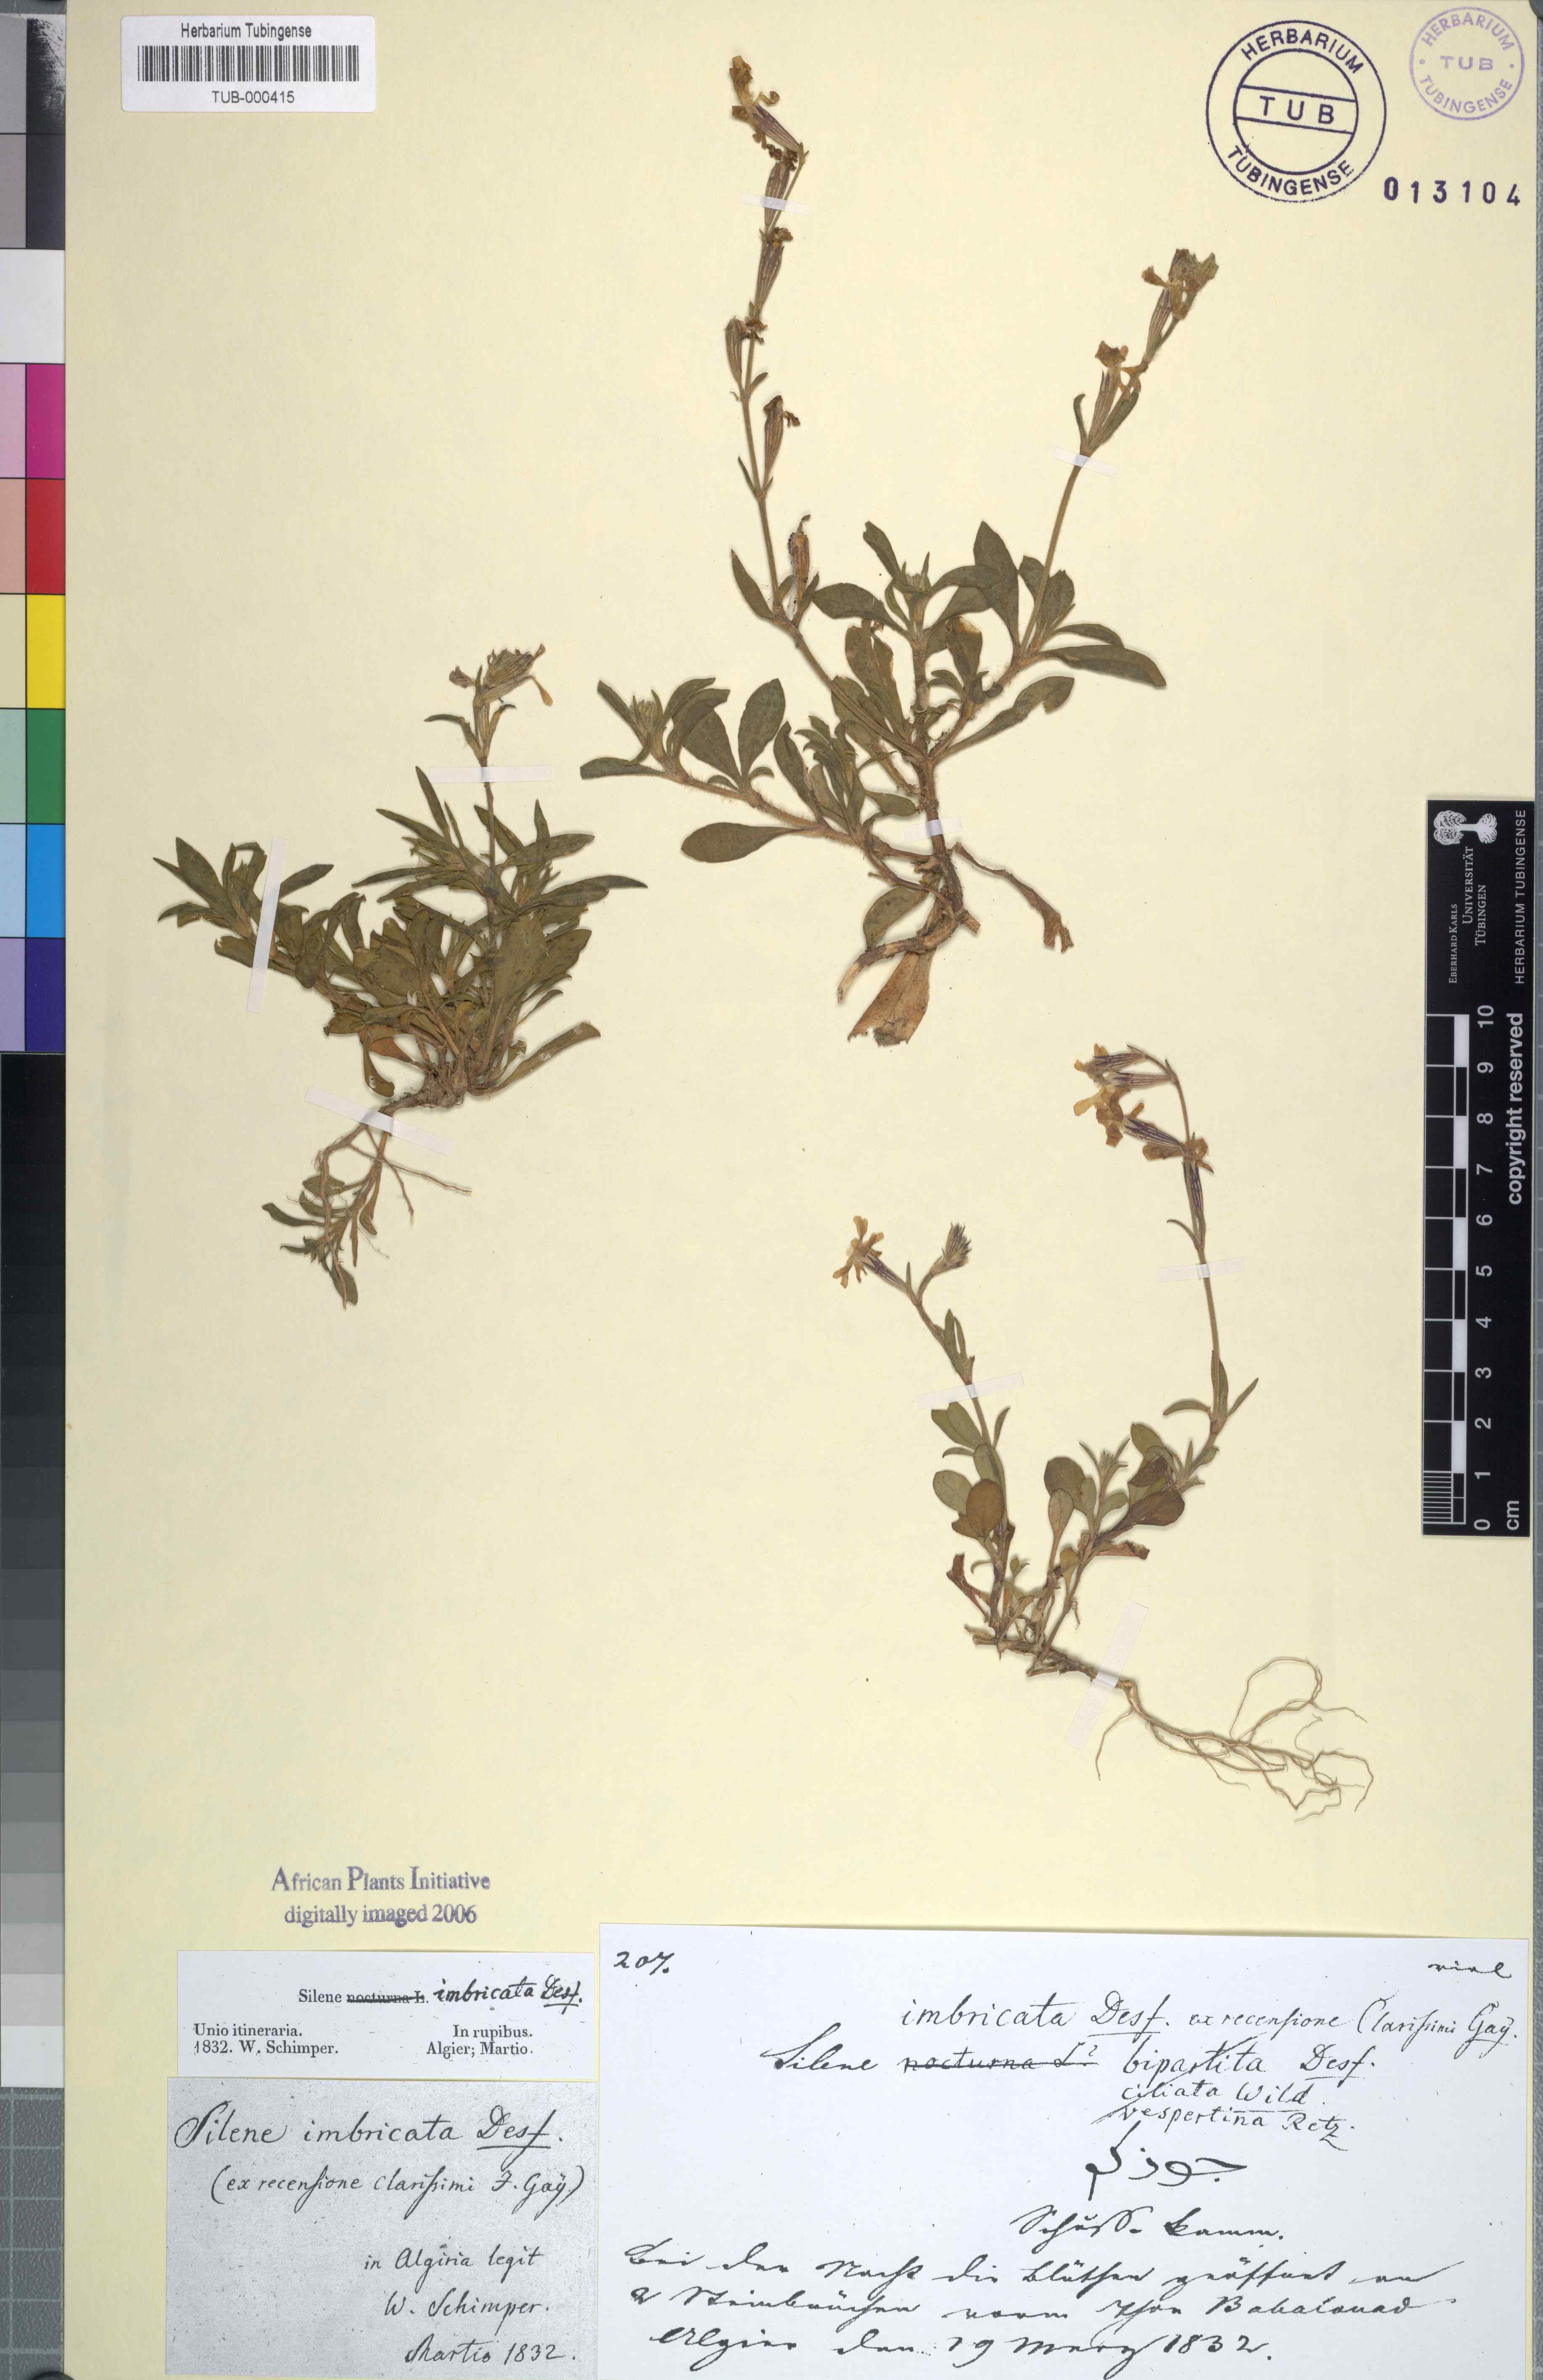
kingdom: Plantae
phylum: Tracheophyta
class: Magnoliopsida
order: Caryophyllales
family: Caryophyllaceae
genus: Silene
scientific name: Silene imbricata
